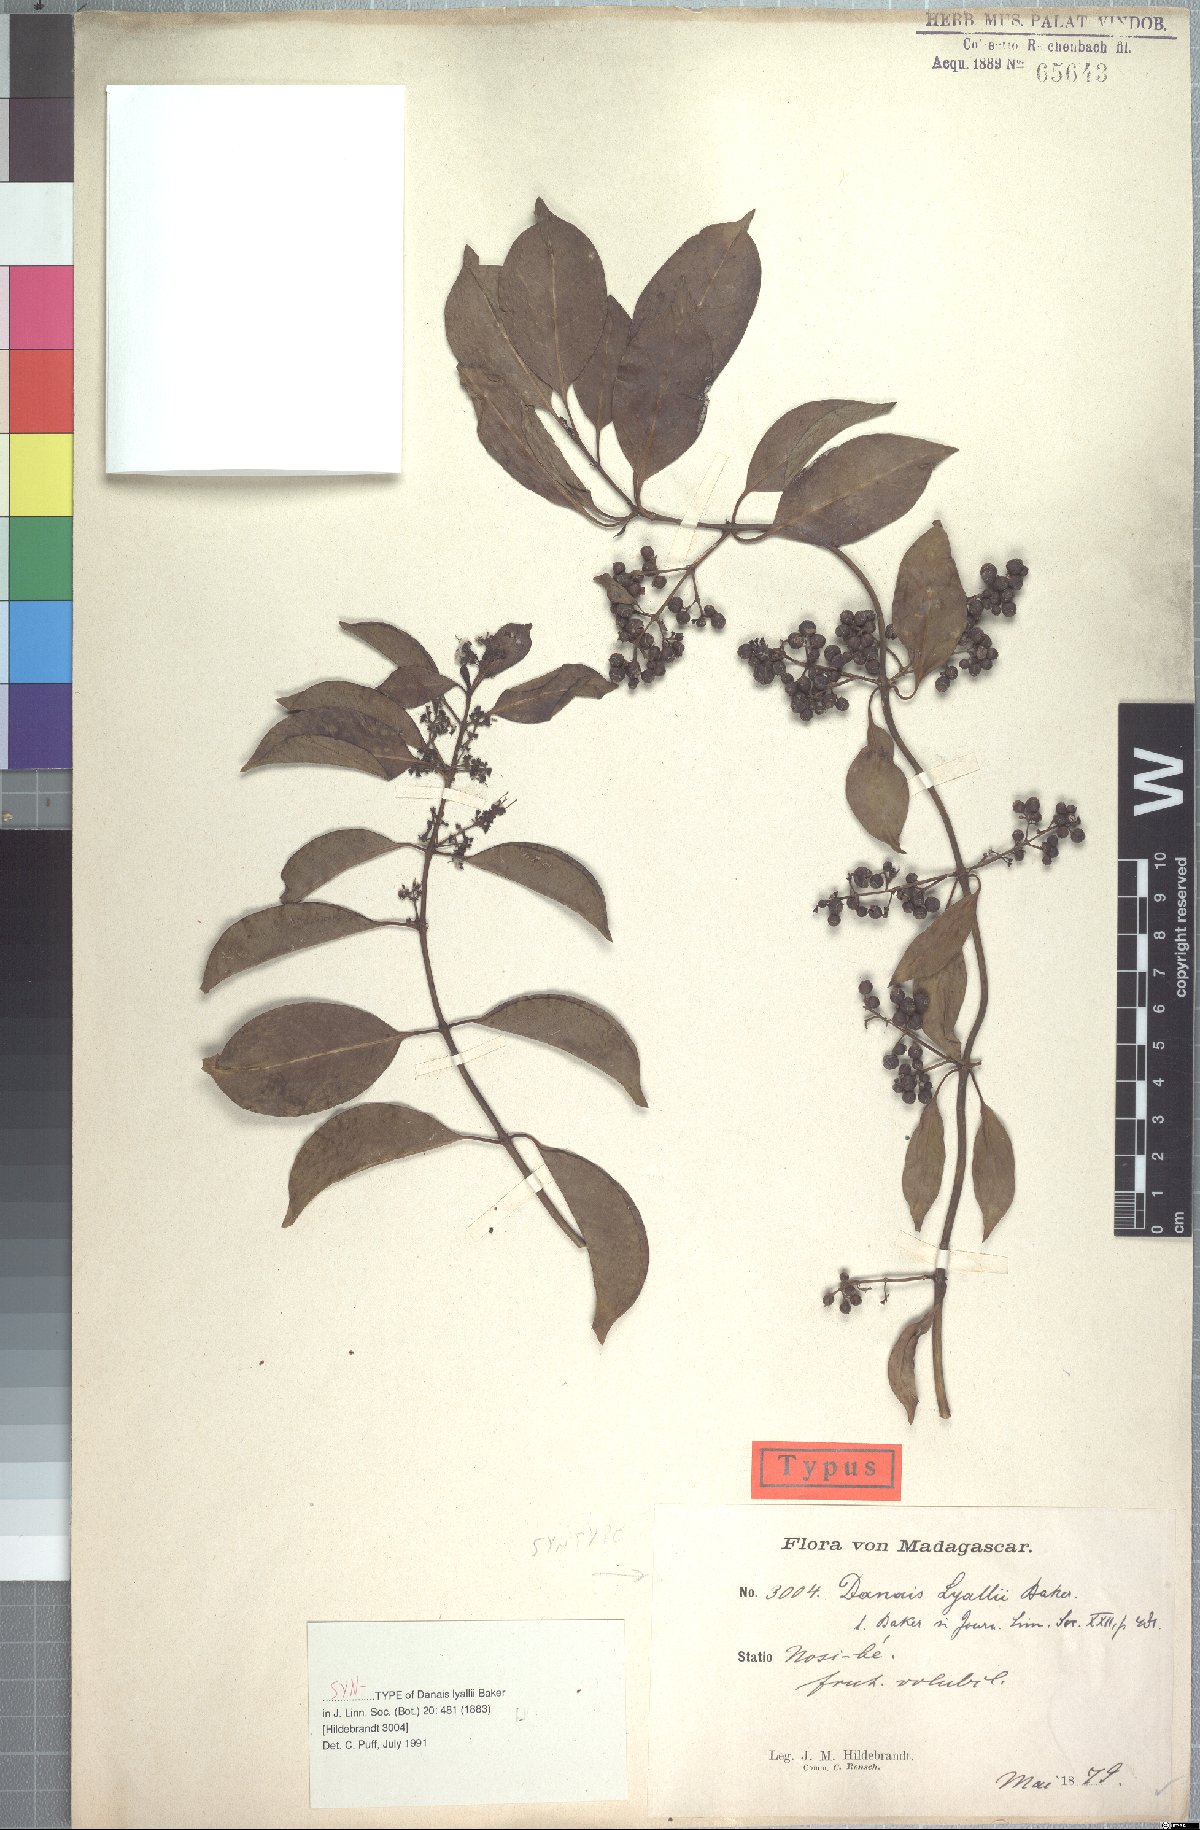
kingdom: Plantae
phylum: Tracheophyta
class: Magnoliopsida
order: Gentianales
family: Rubiaceae
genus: Danais
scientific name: Danais fragrans
